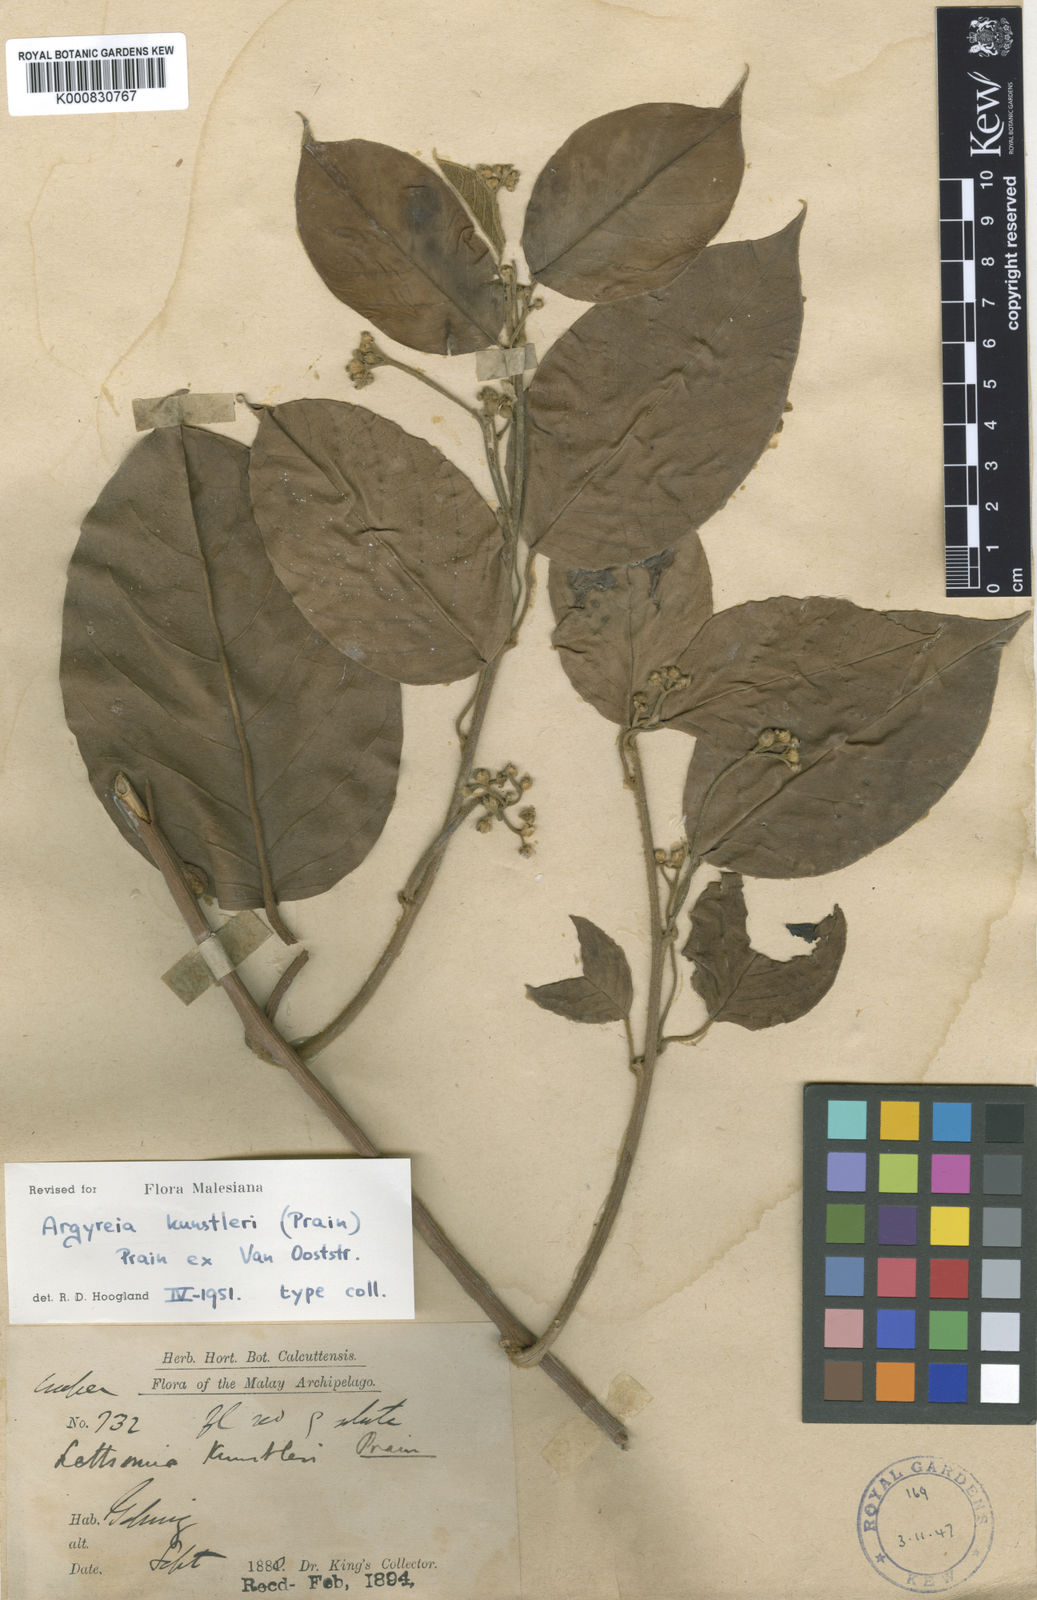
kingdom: Plantae
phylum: Tracheophyta
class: Magnoliopsida
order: Solanales
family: Convolvulaceae
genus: Argyreia
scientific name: Argyreia kunstleri
